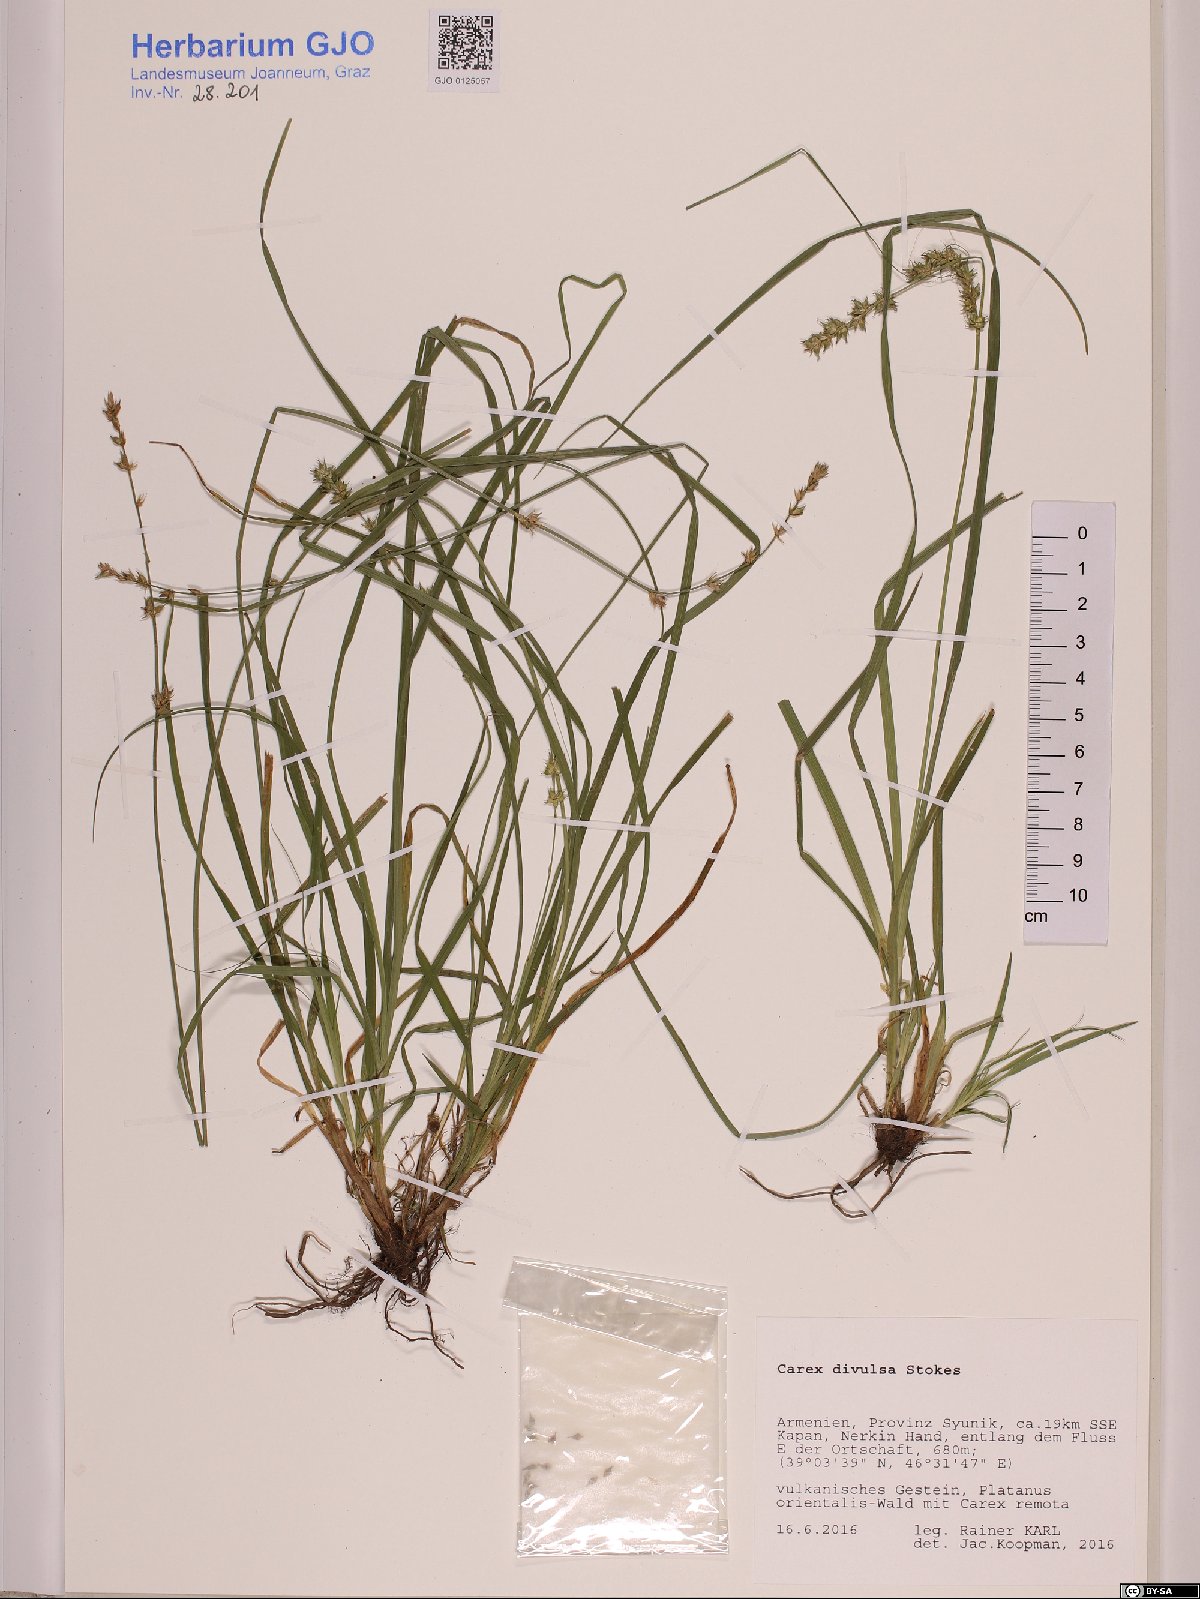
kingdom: Plantae
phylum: Tracheophyta
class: Liliopsida
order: Poales
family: Cyperaceae
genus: Carex
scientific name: Carex divulsa
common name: Grassland sedge
